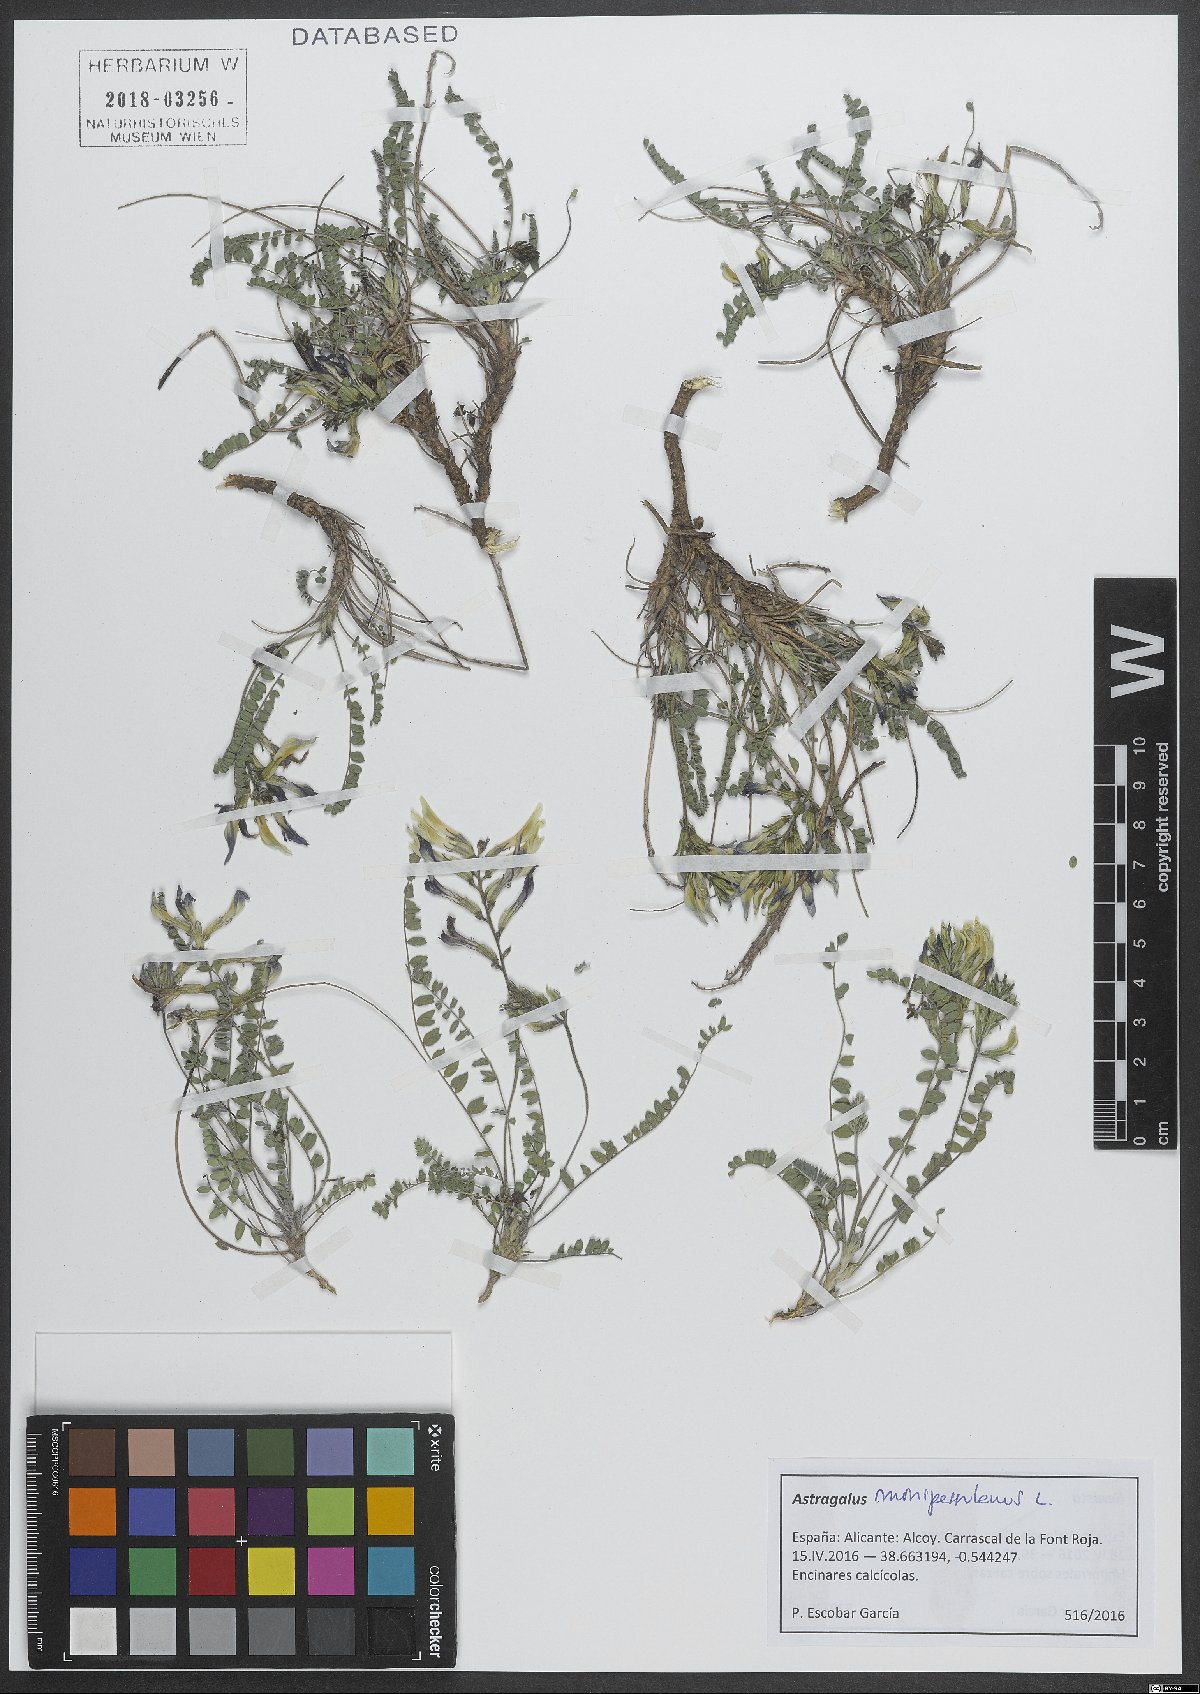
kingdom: Plantae
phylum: Tracheophyta
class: Magnoliopsida
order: Fabales
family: Fabaceae
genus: Astragalus
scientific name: Astragalus monspessulanus
